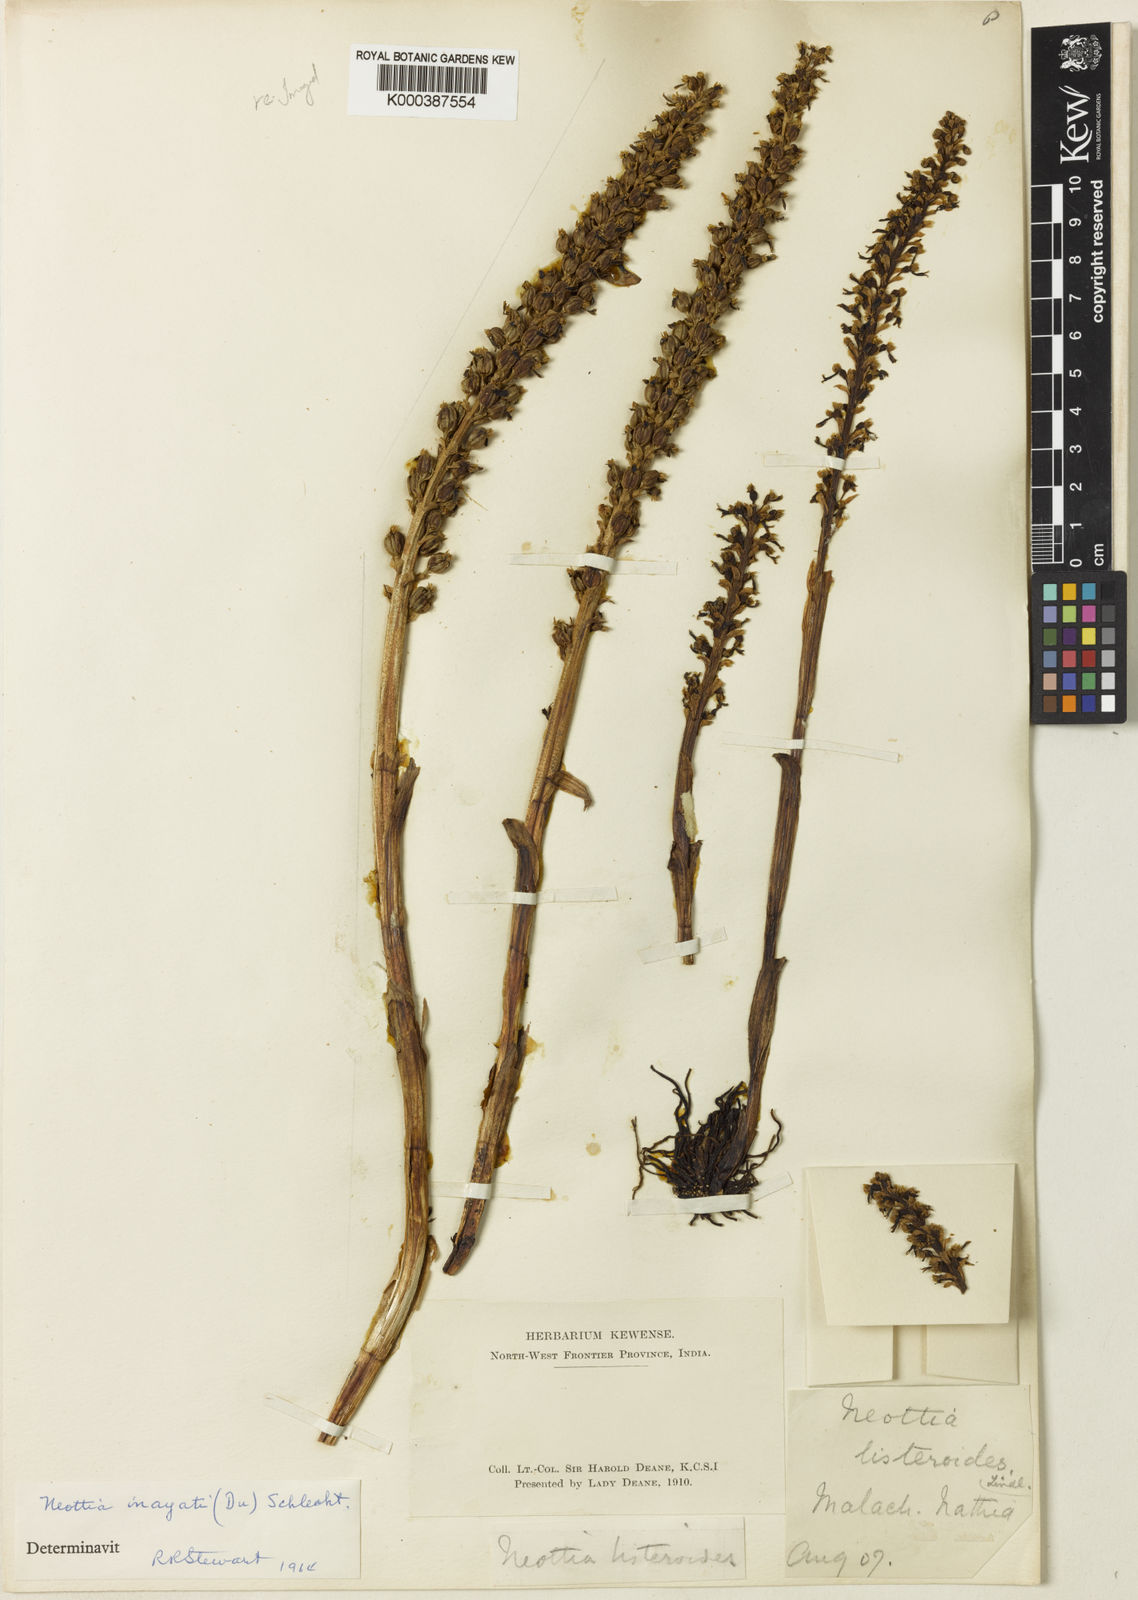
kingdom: Plantae
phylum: Tracheophyta
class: Liliopsida
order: Asparagales
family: Orchidaceae
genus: Neottia
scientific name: Neottia inayatii
